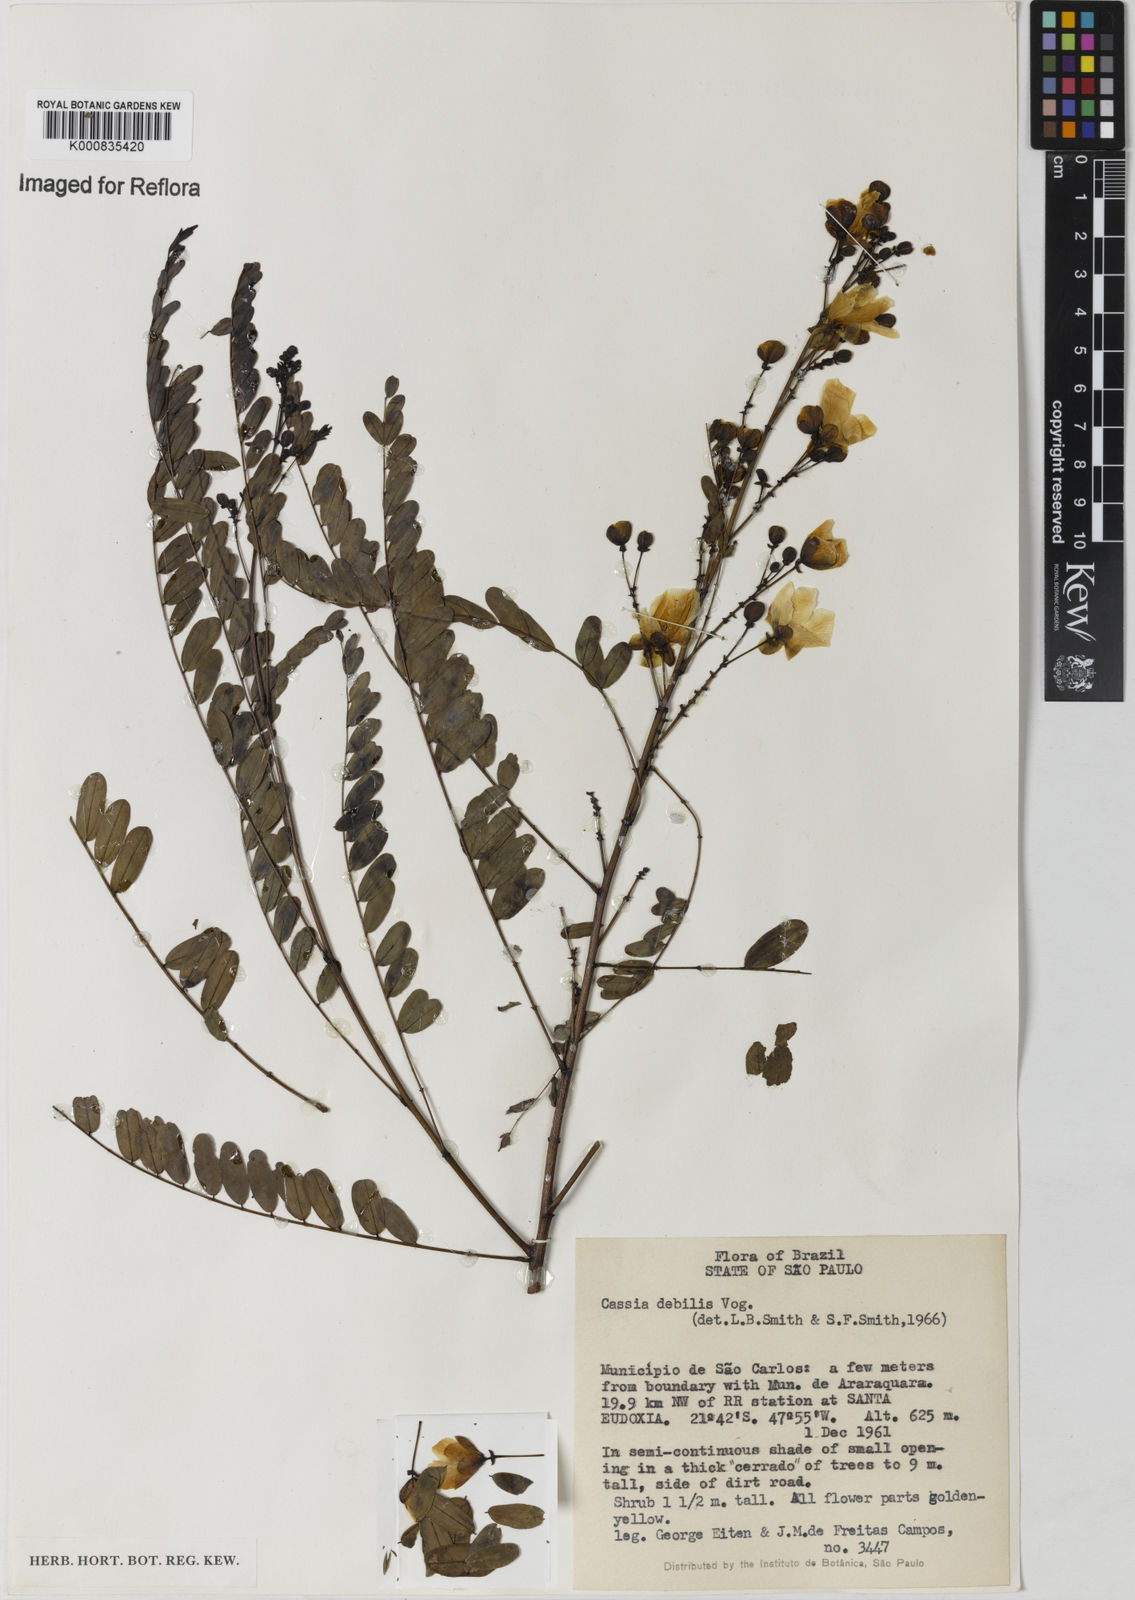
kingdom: Plantae
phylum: Tracheophyta
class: Magnoliopsida
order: Fabales
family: Fabaceae
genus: Chamaecrista
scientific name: Chamaecrista debilis
